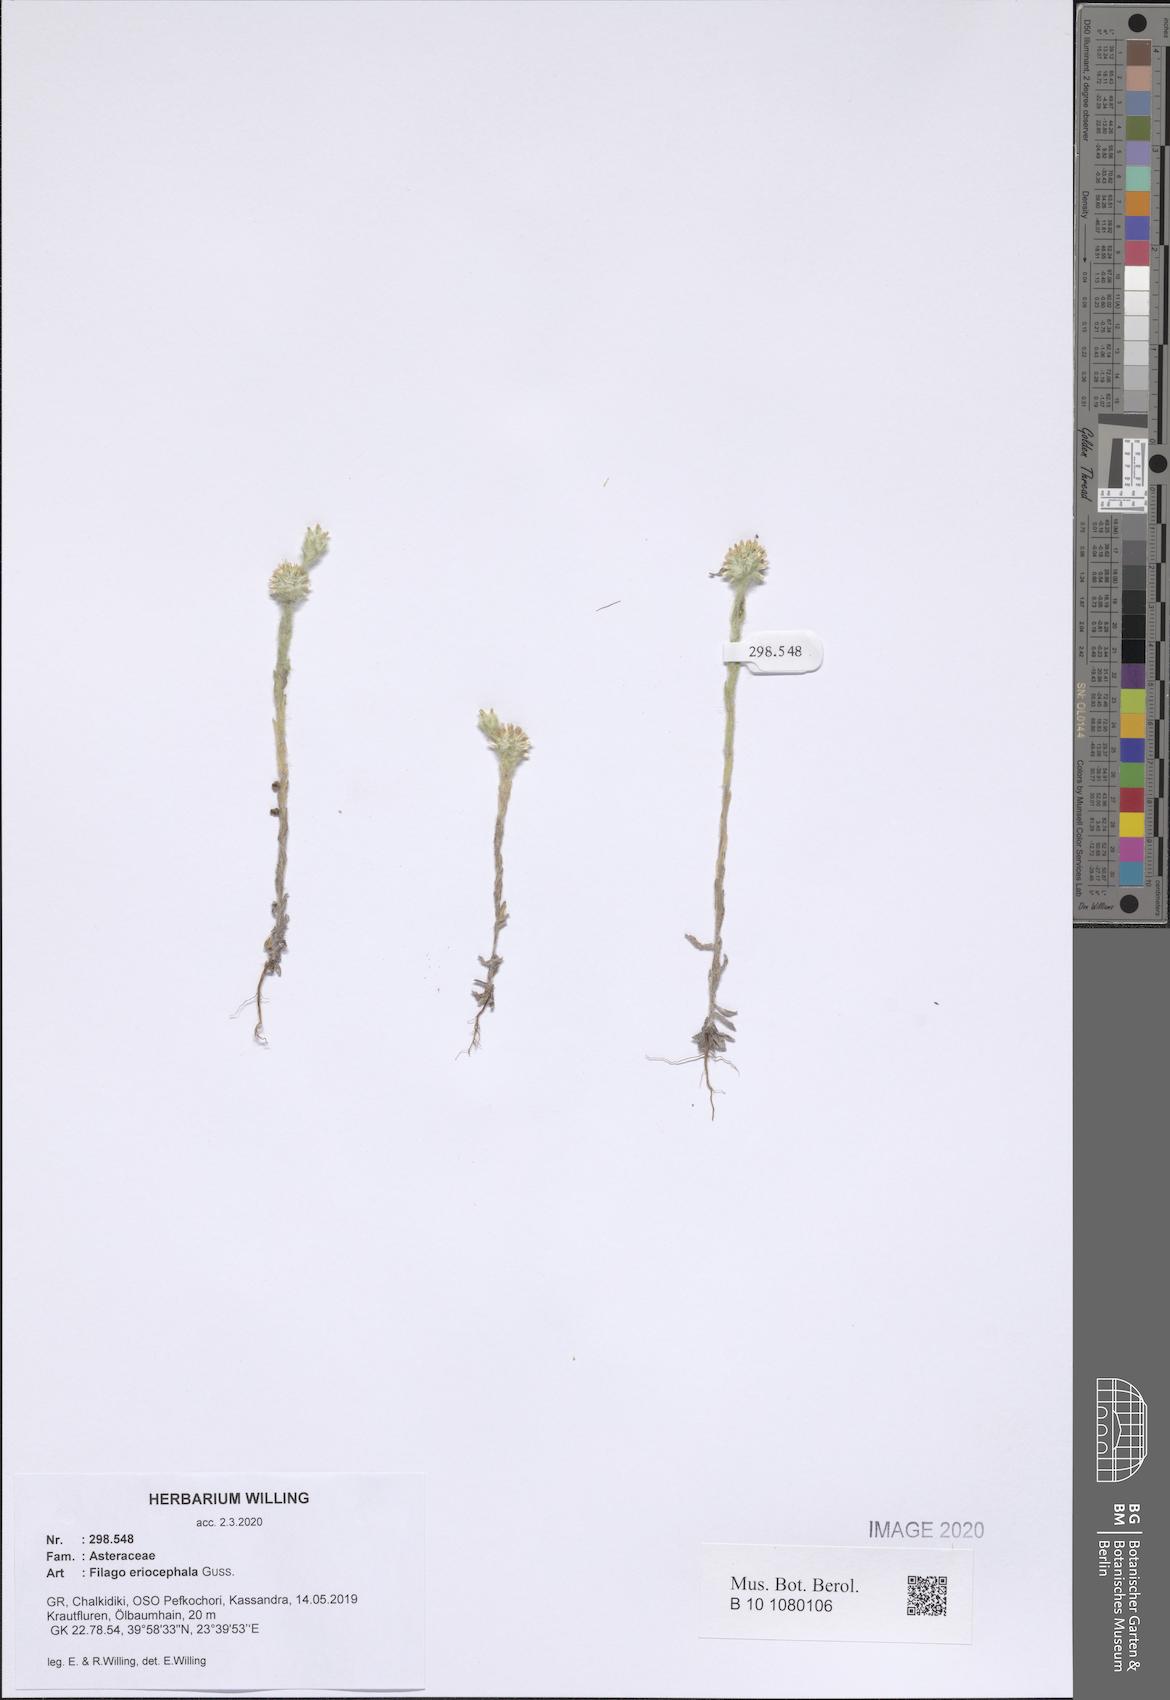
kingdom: Plantae
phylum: Tracheophyta
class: Magnoliopsida
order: Asterales
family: Asteraceae
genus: Filago
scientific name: Filago eriocephala
